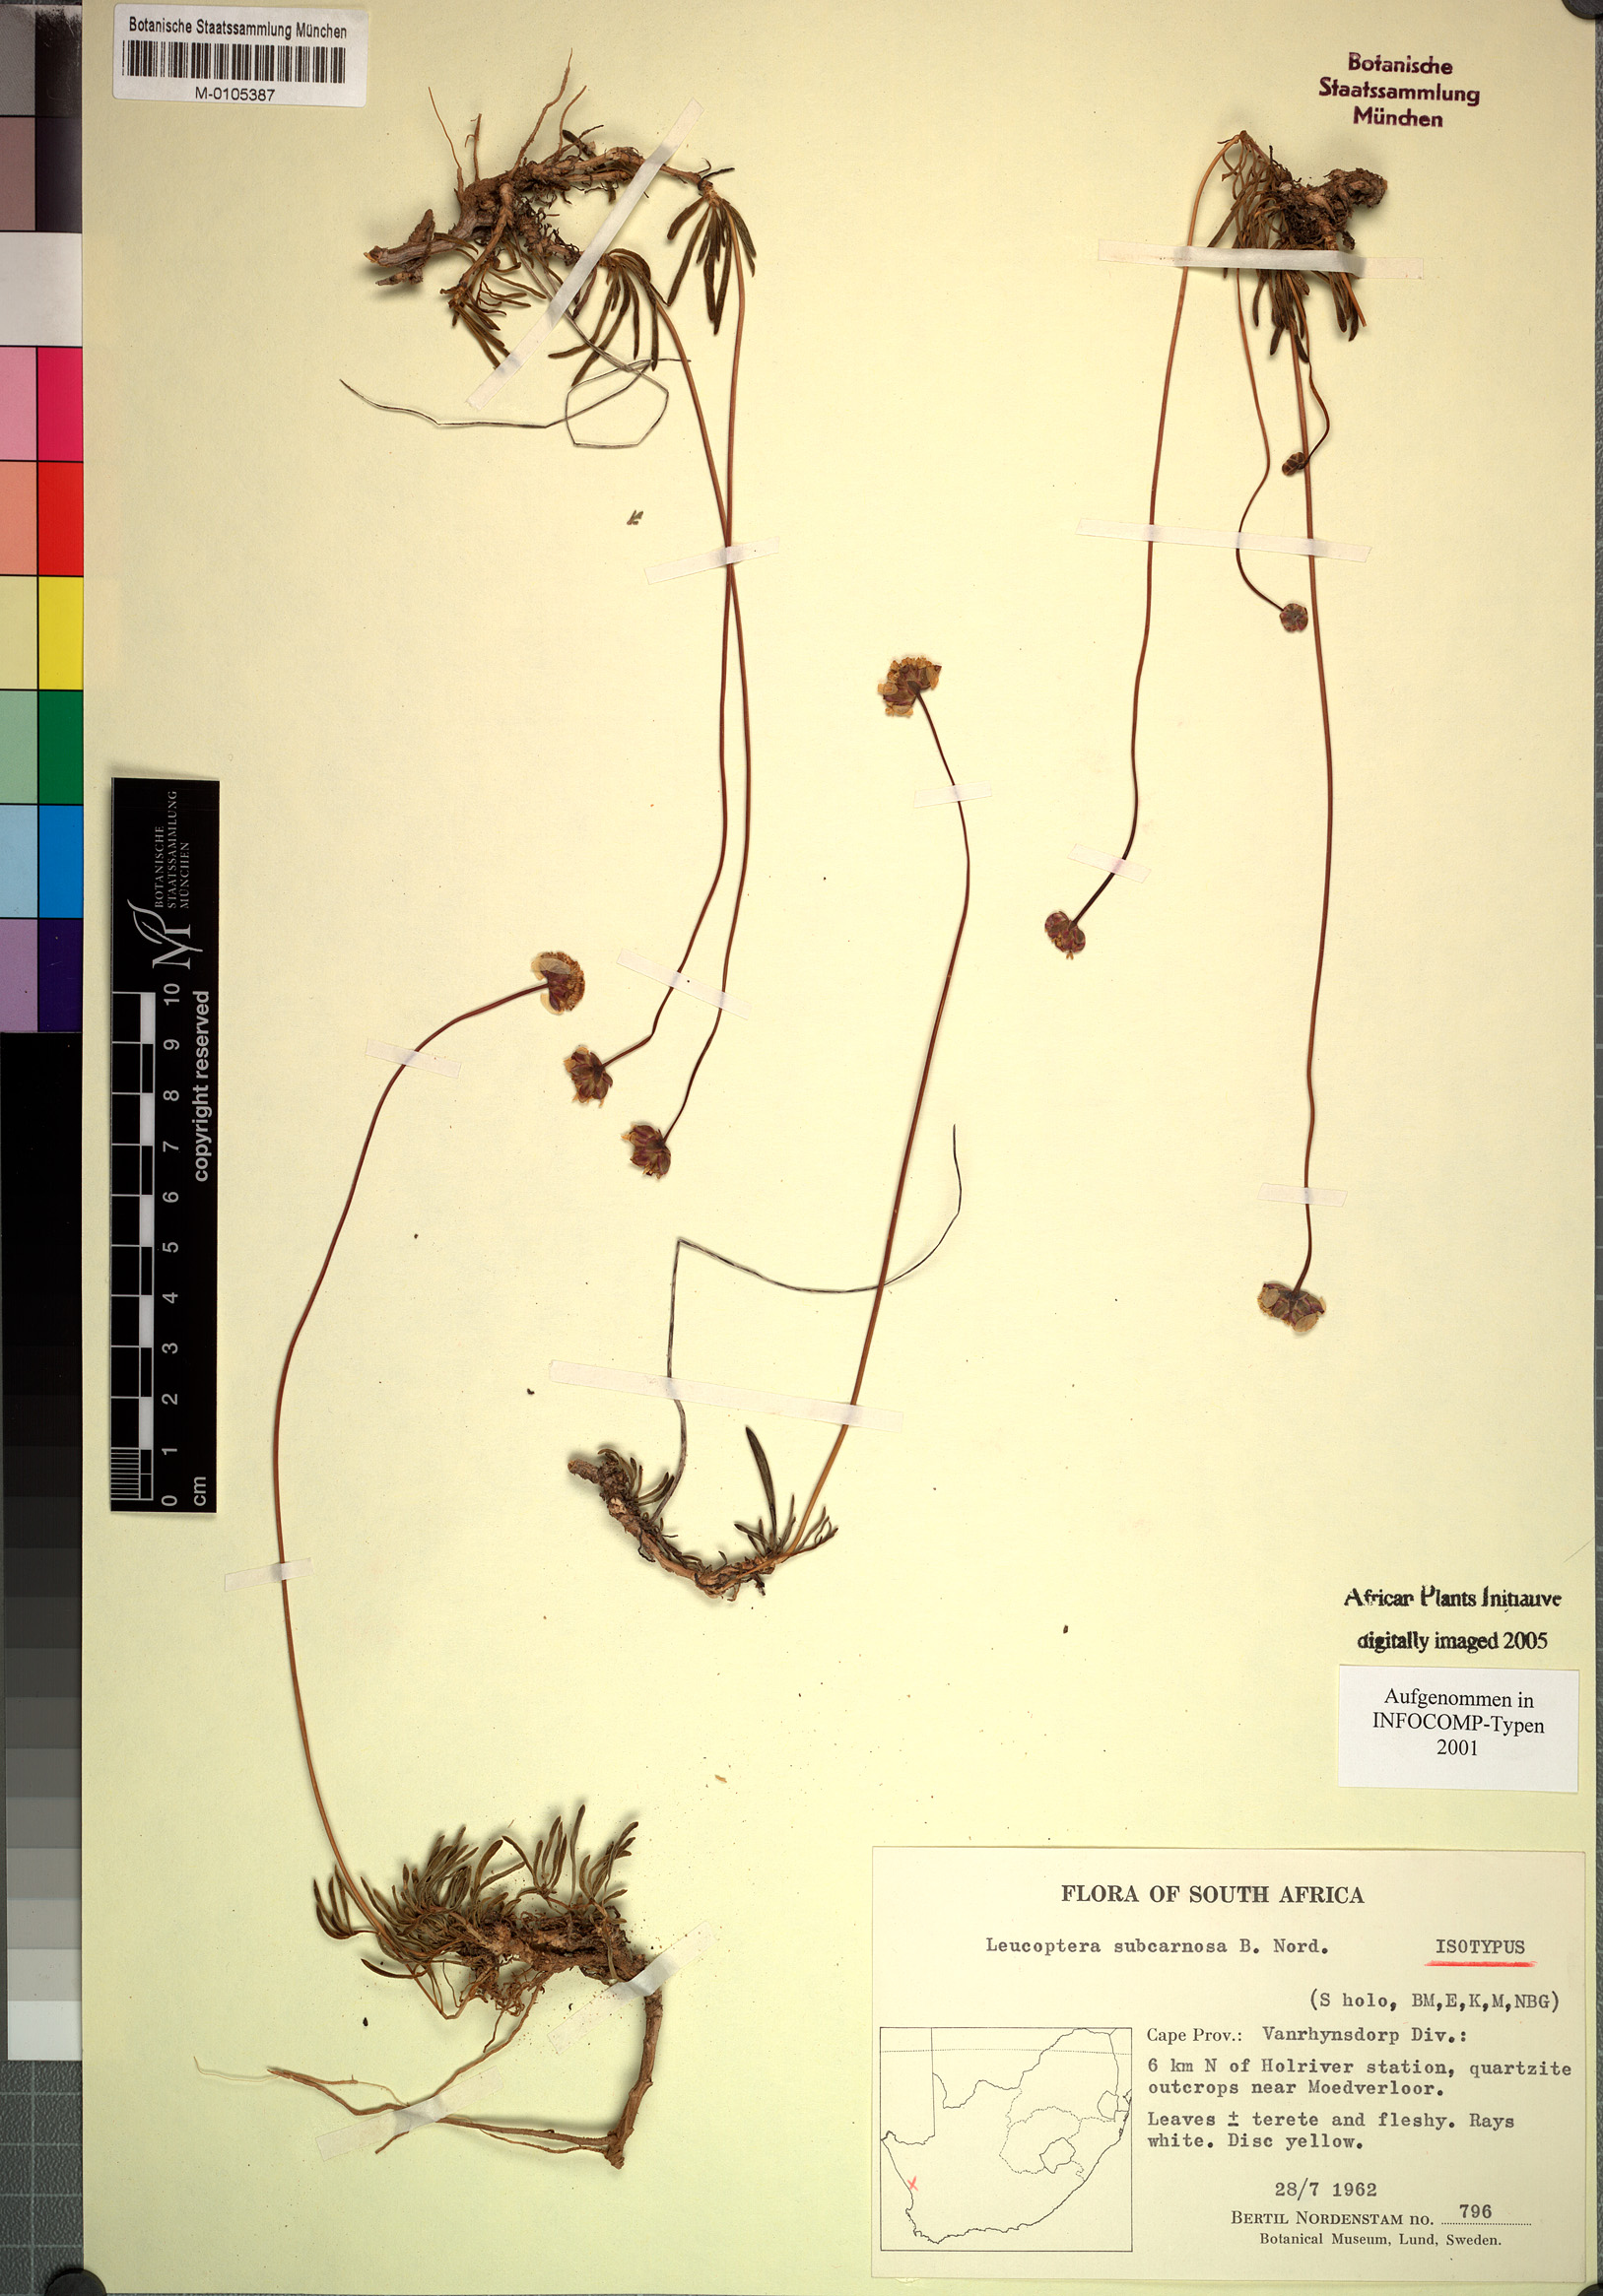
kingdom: Plantae
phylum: Tracheophyta
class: Magnoliopsida
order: Asterales
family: Asteraceae
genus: Leucoptera
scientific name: Leucoptera subcarnosa
